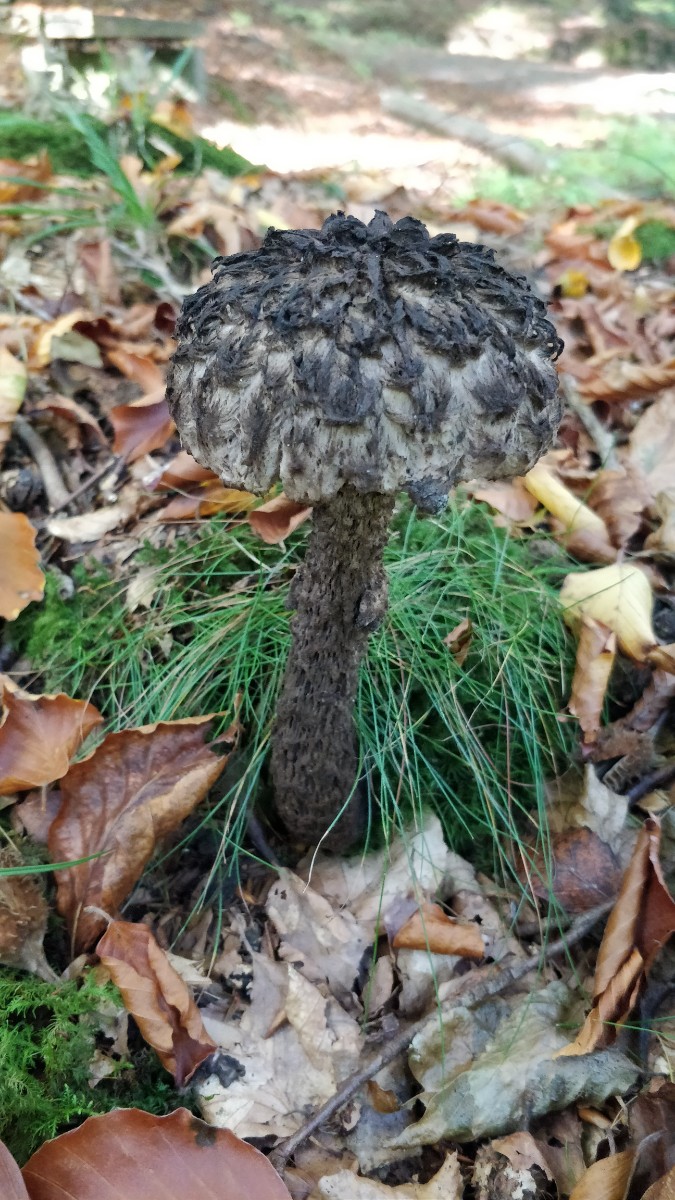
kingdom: Fungi
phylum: Basidiomycota
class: Agaricomycetes
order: Boletales
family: Boletaceae
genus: Strobilomyces
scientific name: Strobilomyces strobilaceus
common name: koglerørhat
